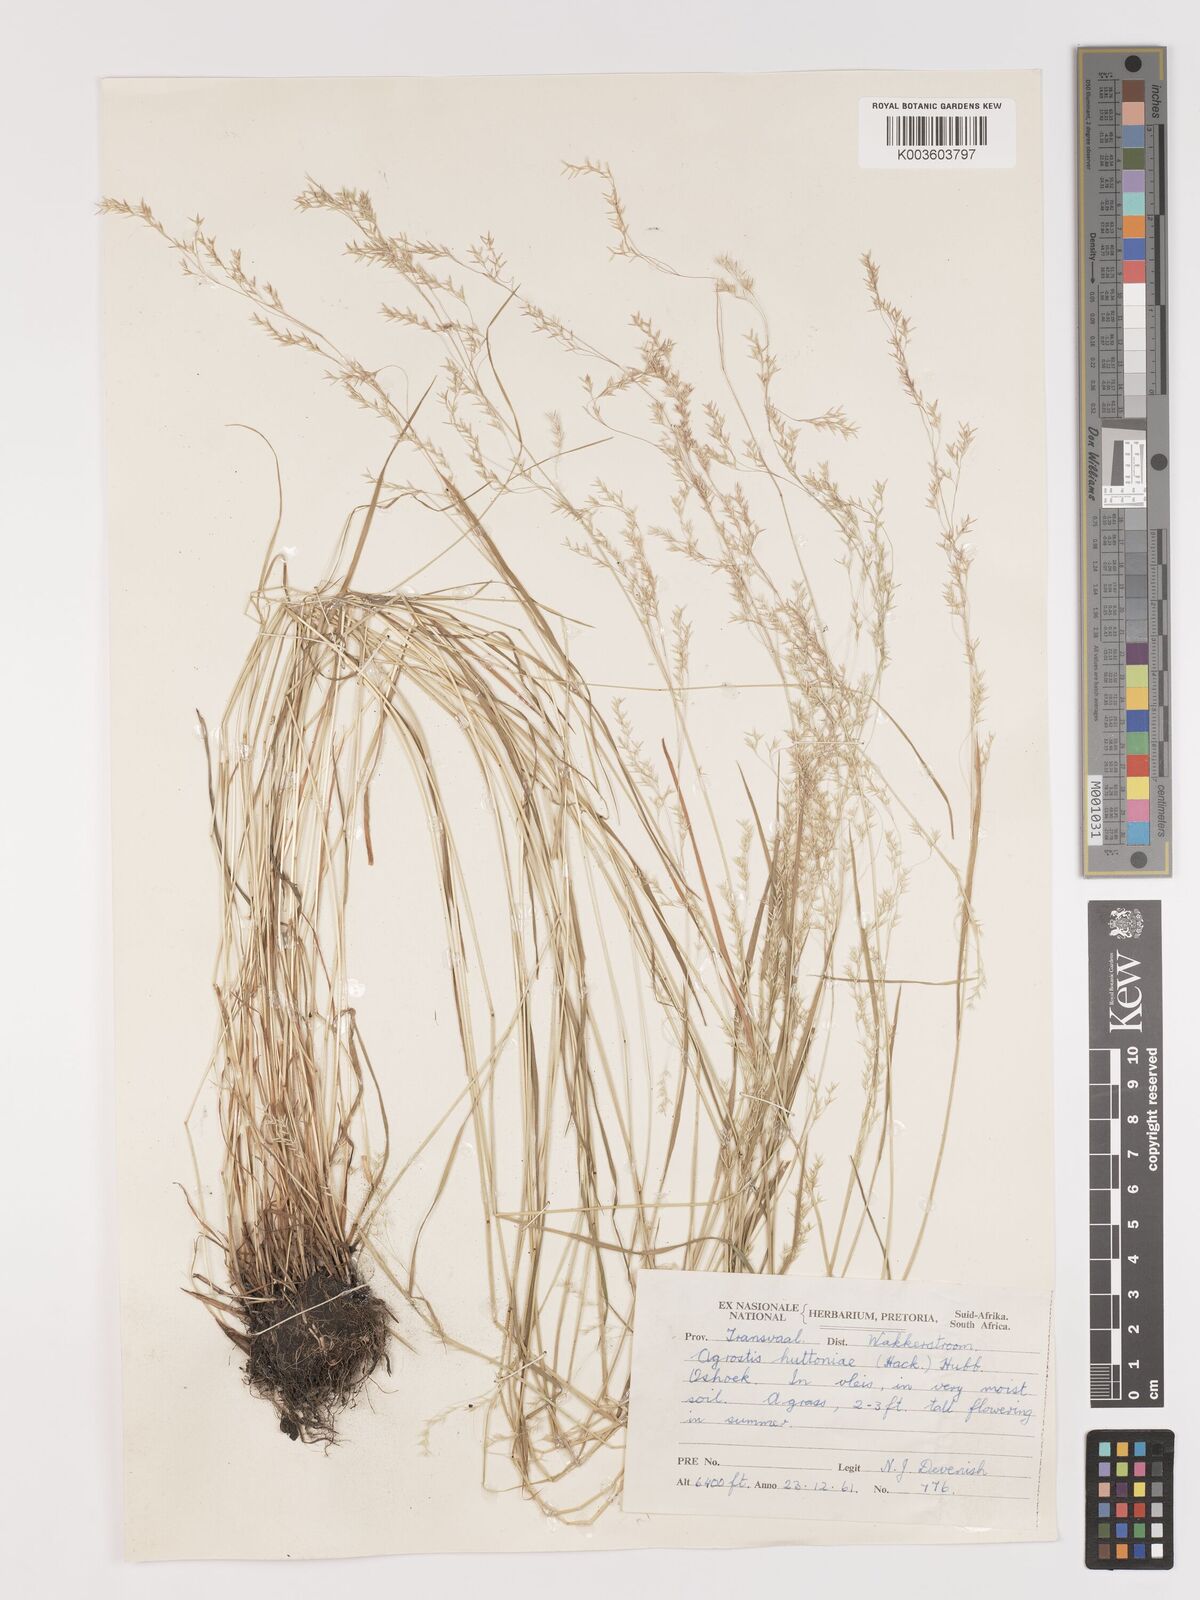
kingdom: Plantae
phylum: Tracheophyta
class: Liliopsida
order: Poales
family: Poaceae
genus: Lachnagrostis
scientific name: Lachnagrostis lachnantha
